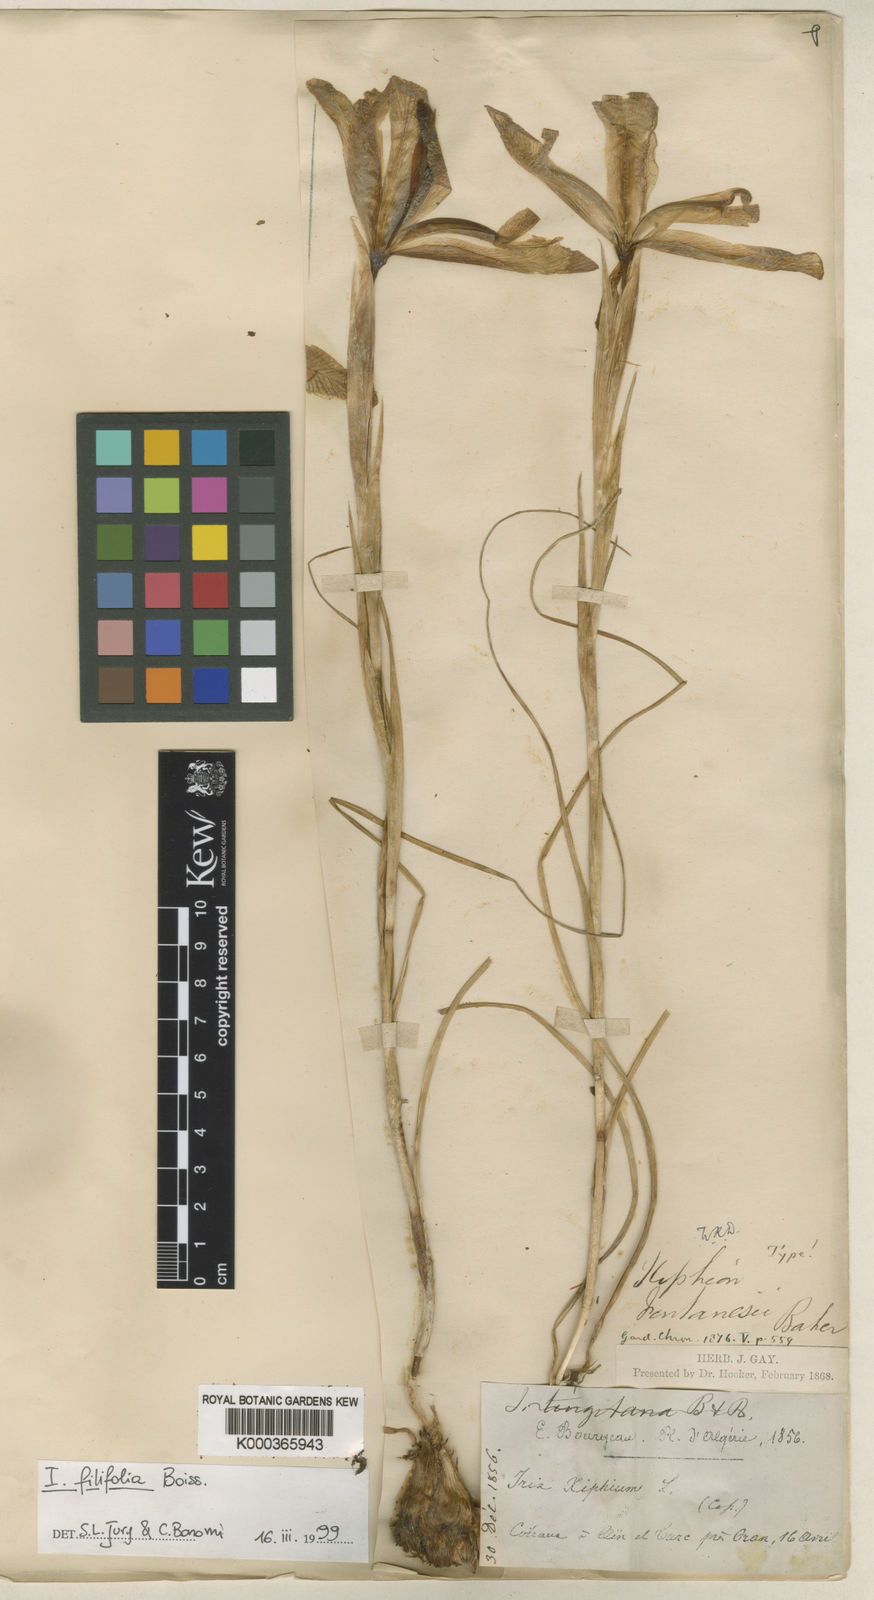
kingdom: Plantae
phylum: Tracheophyta
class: Liliopsida
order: Asparagales
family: Iridaceae
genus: Iris
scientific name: Iris filifolia
